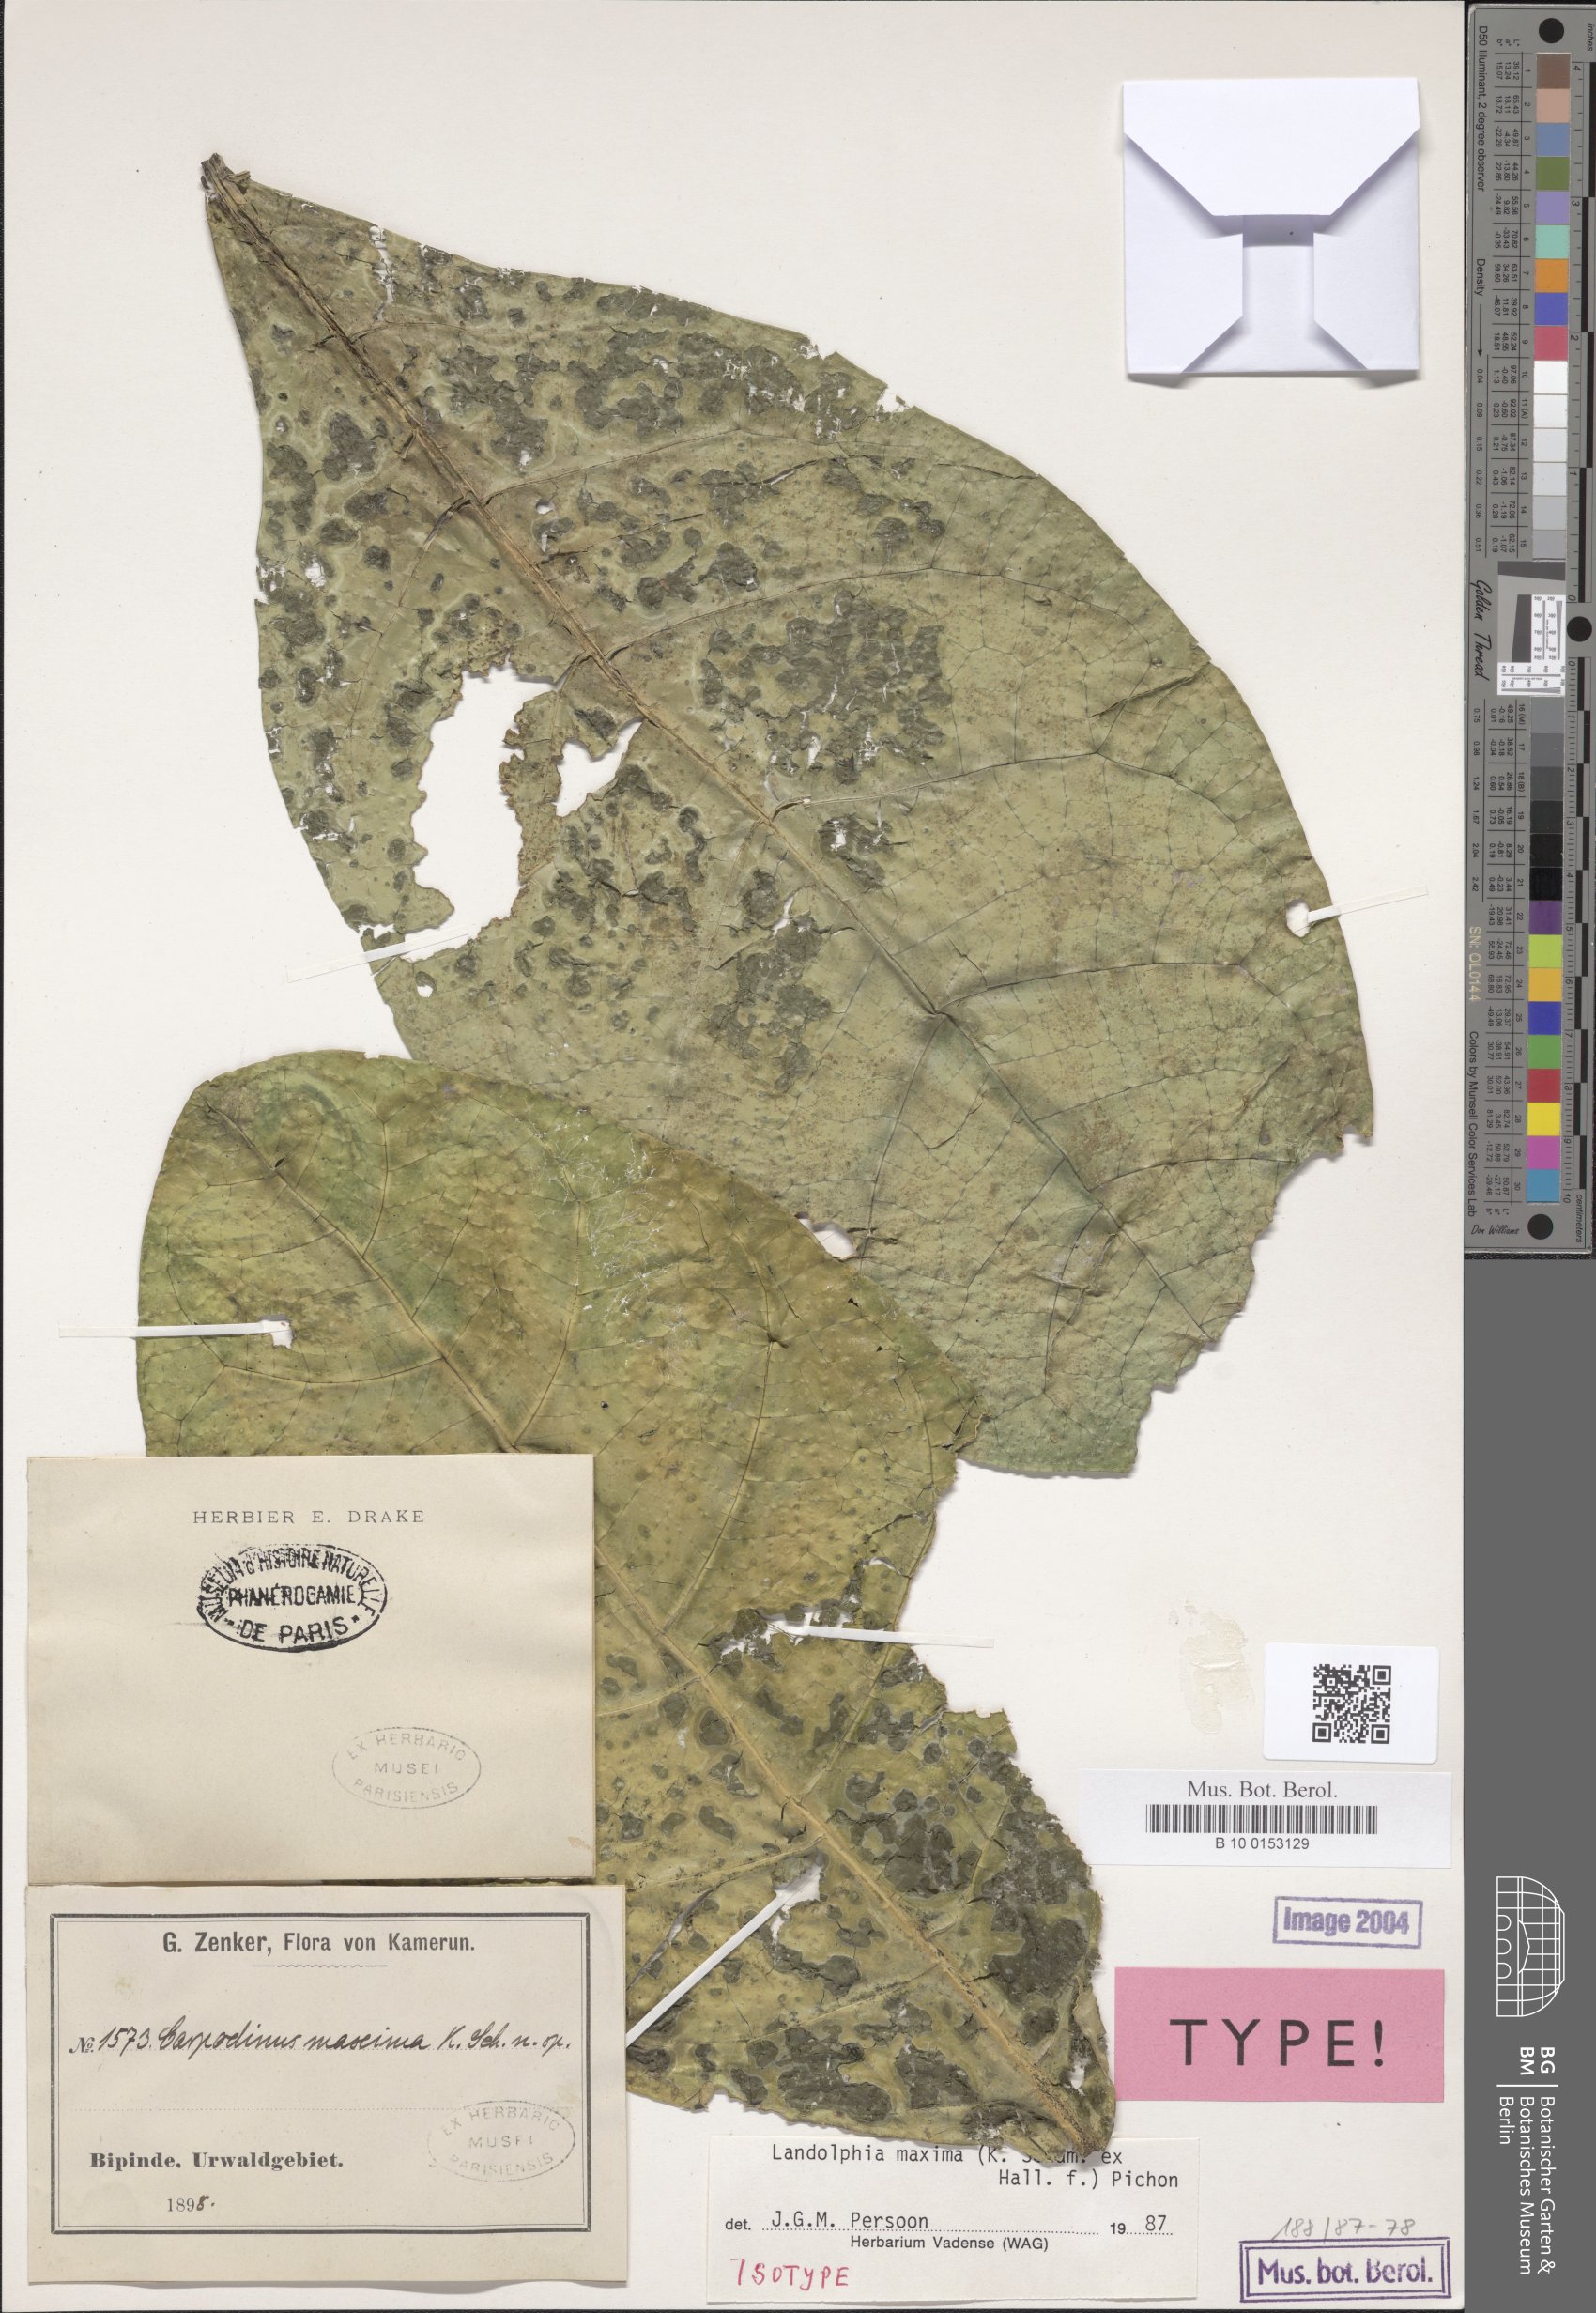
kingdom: Plantae
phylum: Tracheophyta
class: Magnoliopsida
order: Gentianales
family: Apocynaceae
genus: Landolphia
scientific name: Landolphia maxima
